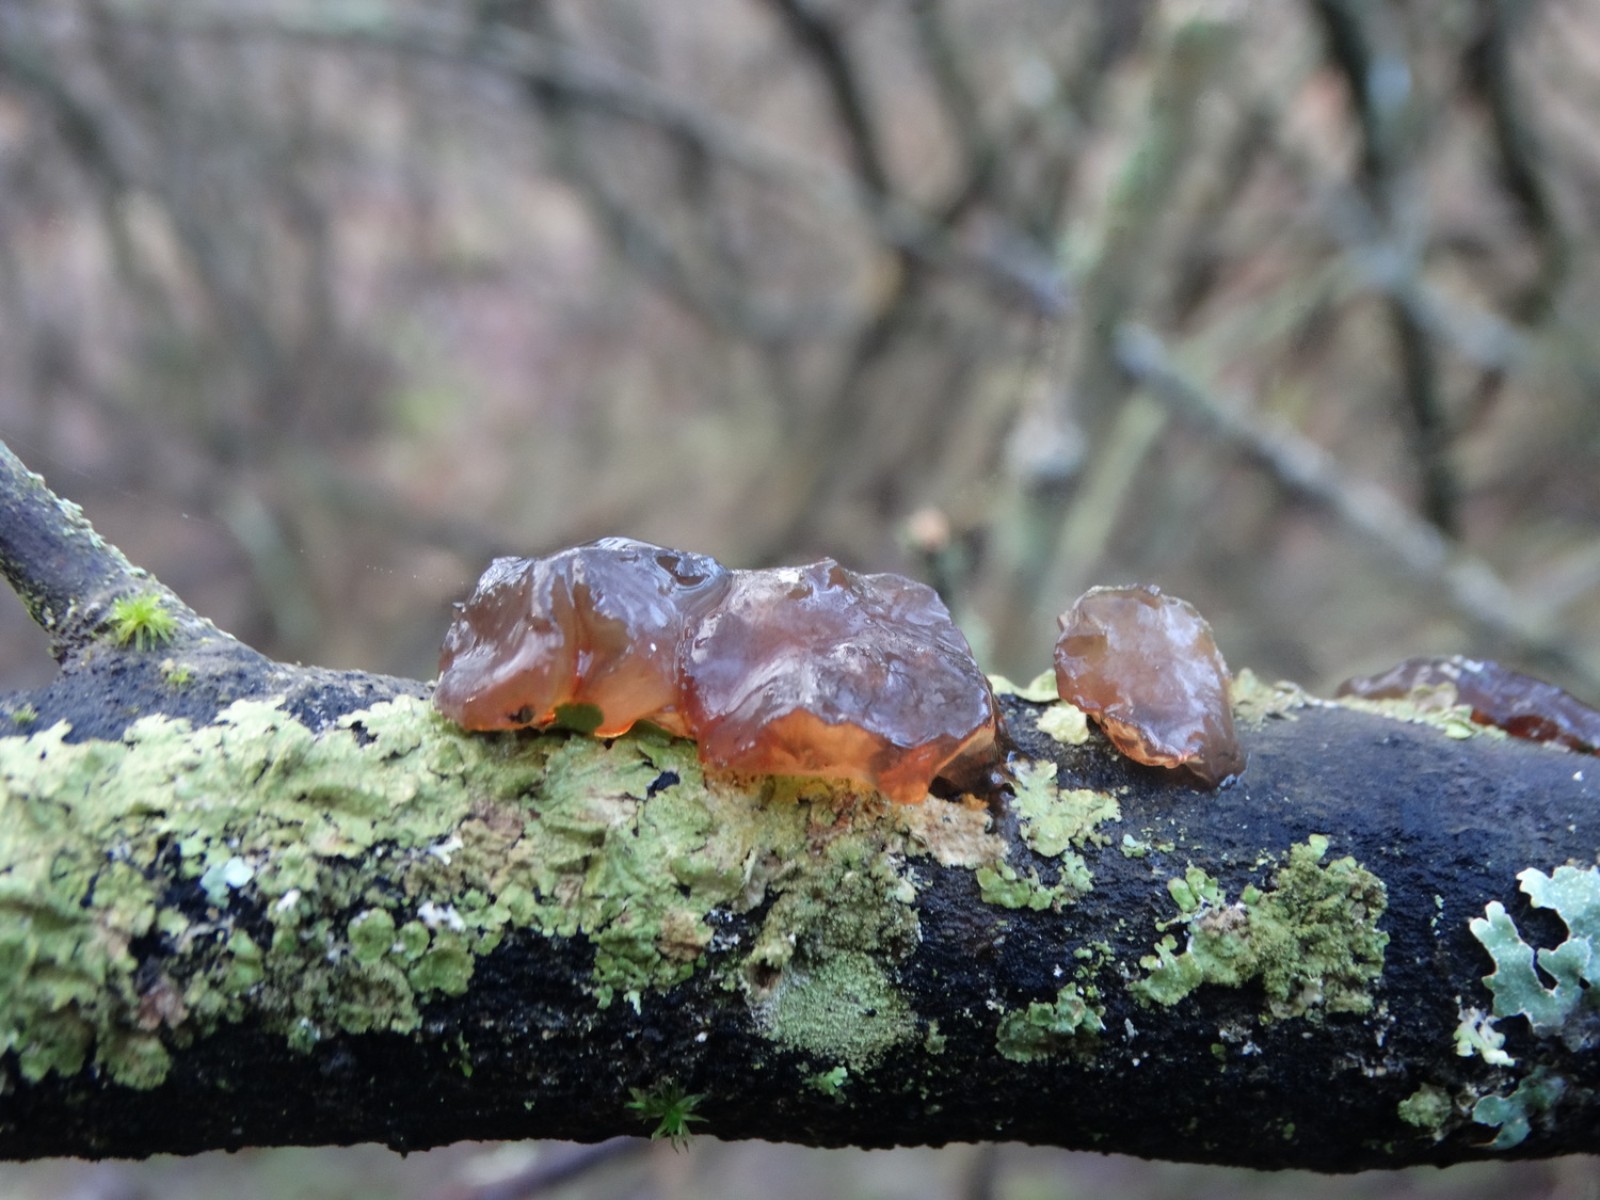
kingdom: Fungi
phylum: Basidiomycota
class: Agaricomycetes
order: Auriculariales
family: Auriculariaceae
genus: Exidia
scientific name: Exidia recisa
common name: pile-bævretop
